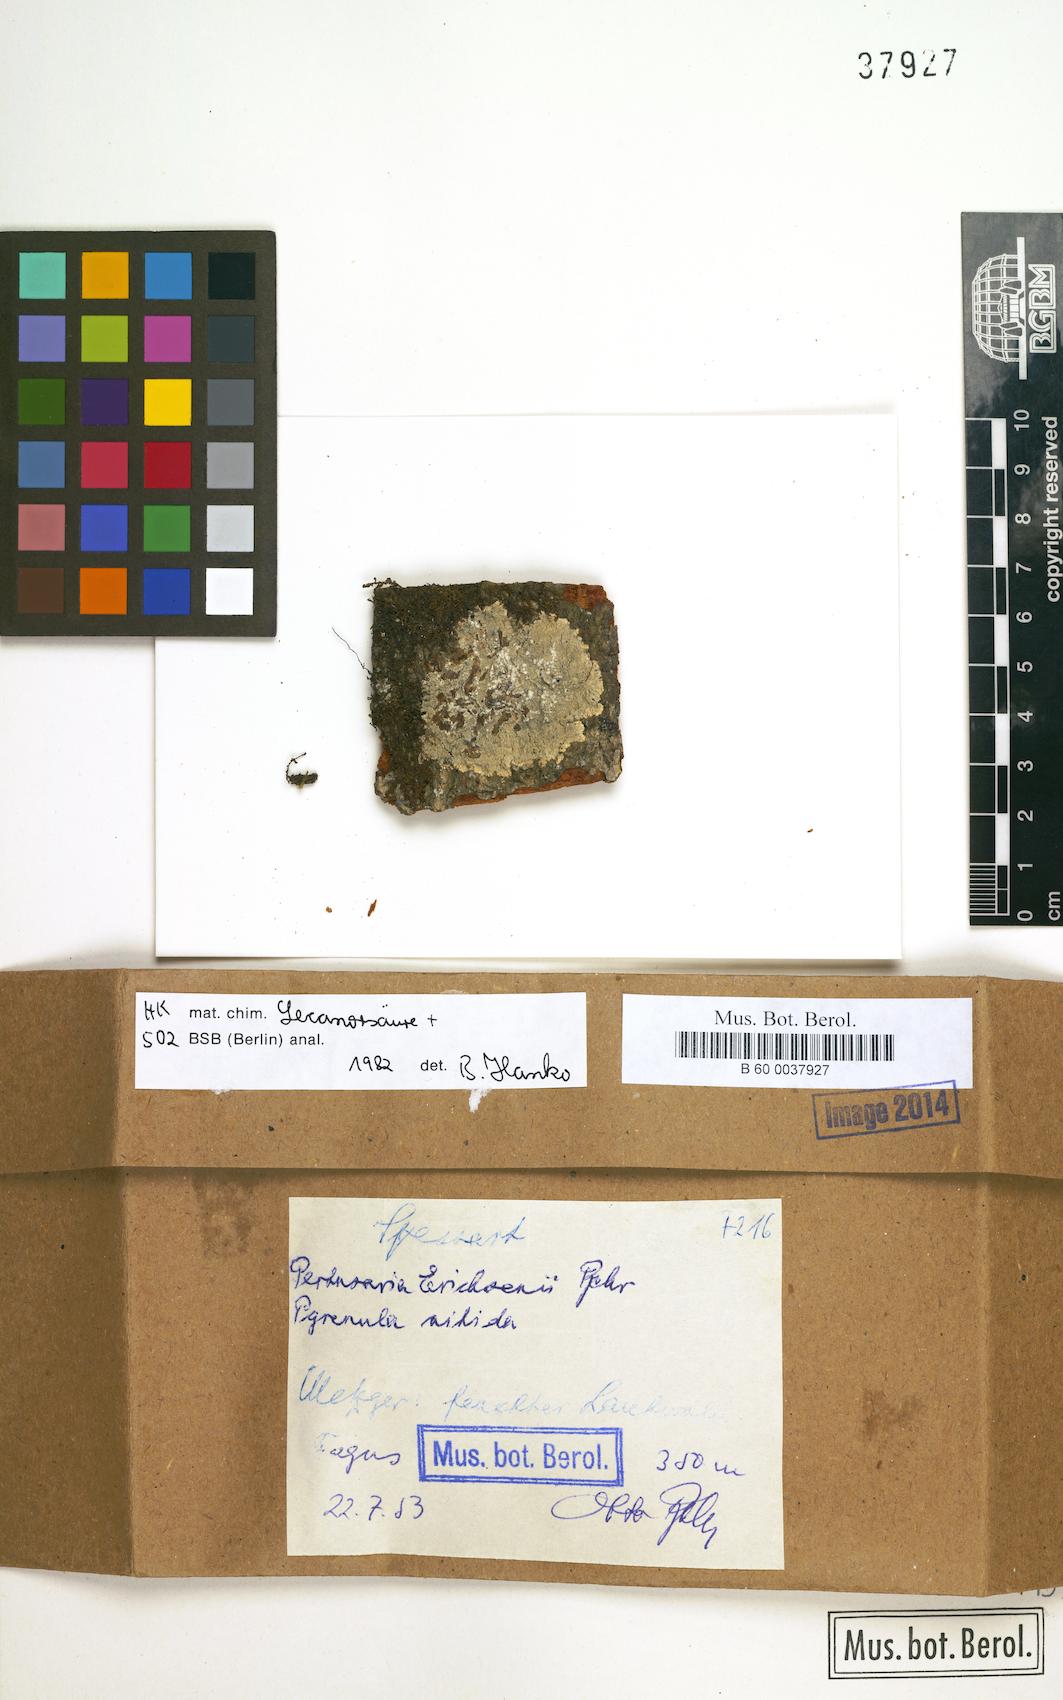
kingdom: Fungi
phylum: Ascomycota
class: Lecanoromycetes
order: Pertusariales
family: Pertusariaceae
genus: Pertusaria
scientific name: Pertusaria
